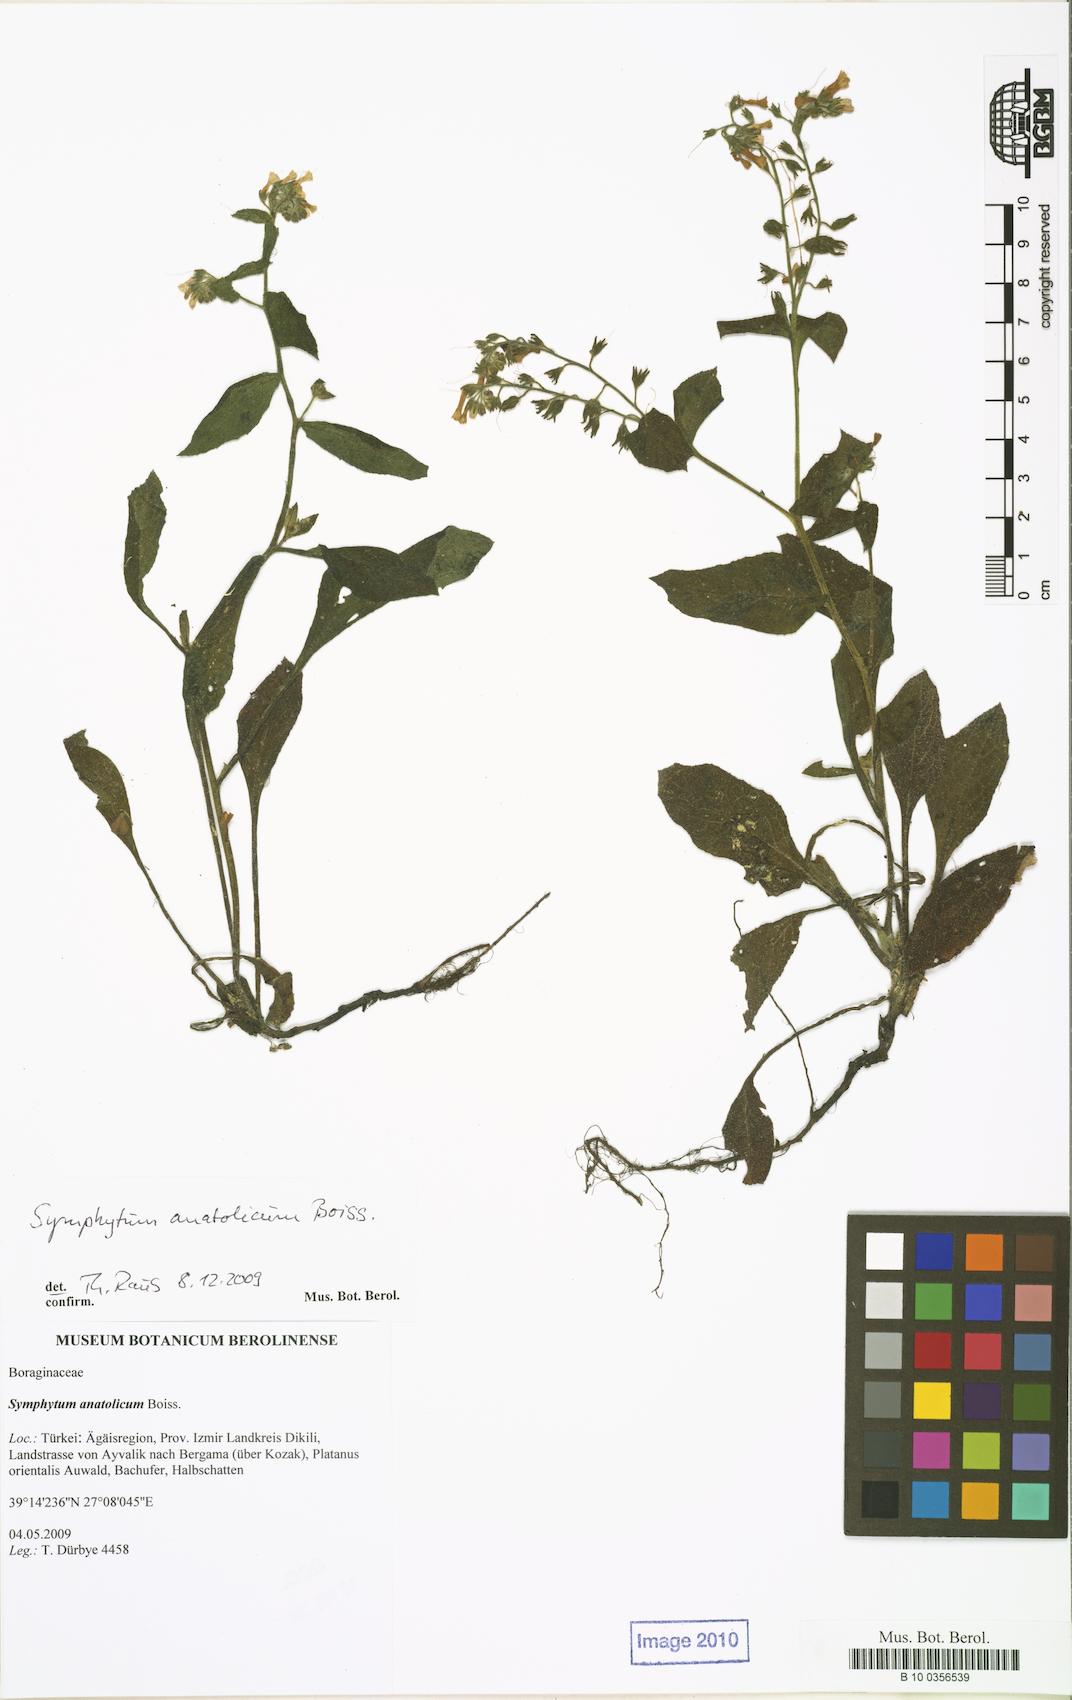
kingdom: Plantae
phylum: Tracheophyta
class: Magnoliopsida
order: Boraginales
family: Boraginaceae
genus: Symphytum
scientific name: Symphytum anatolicum
